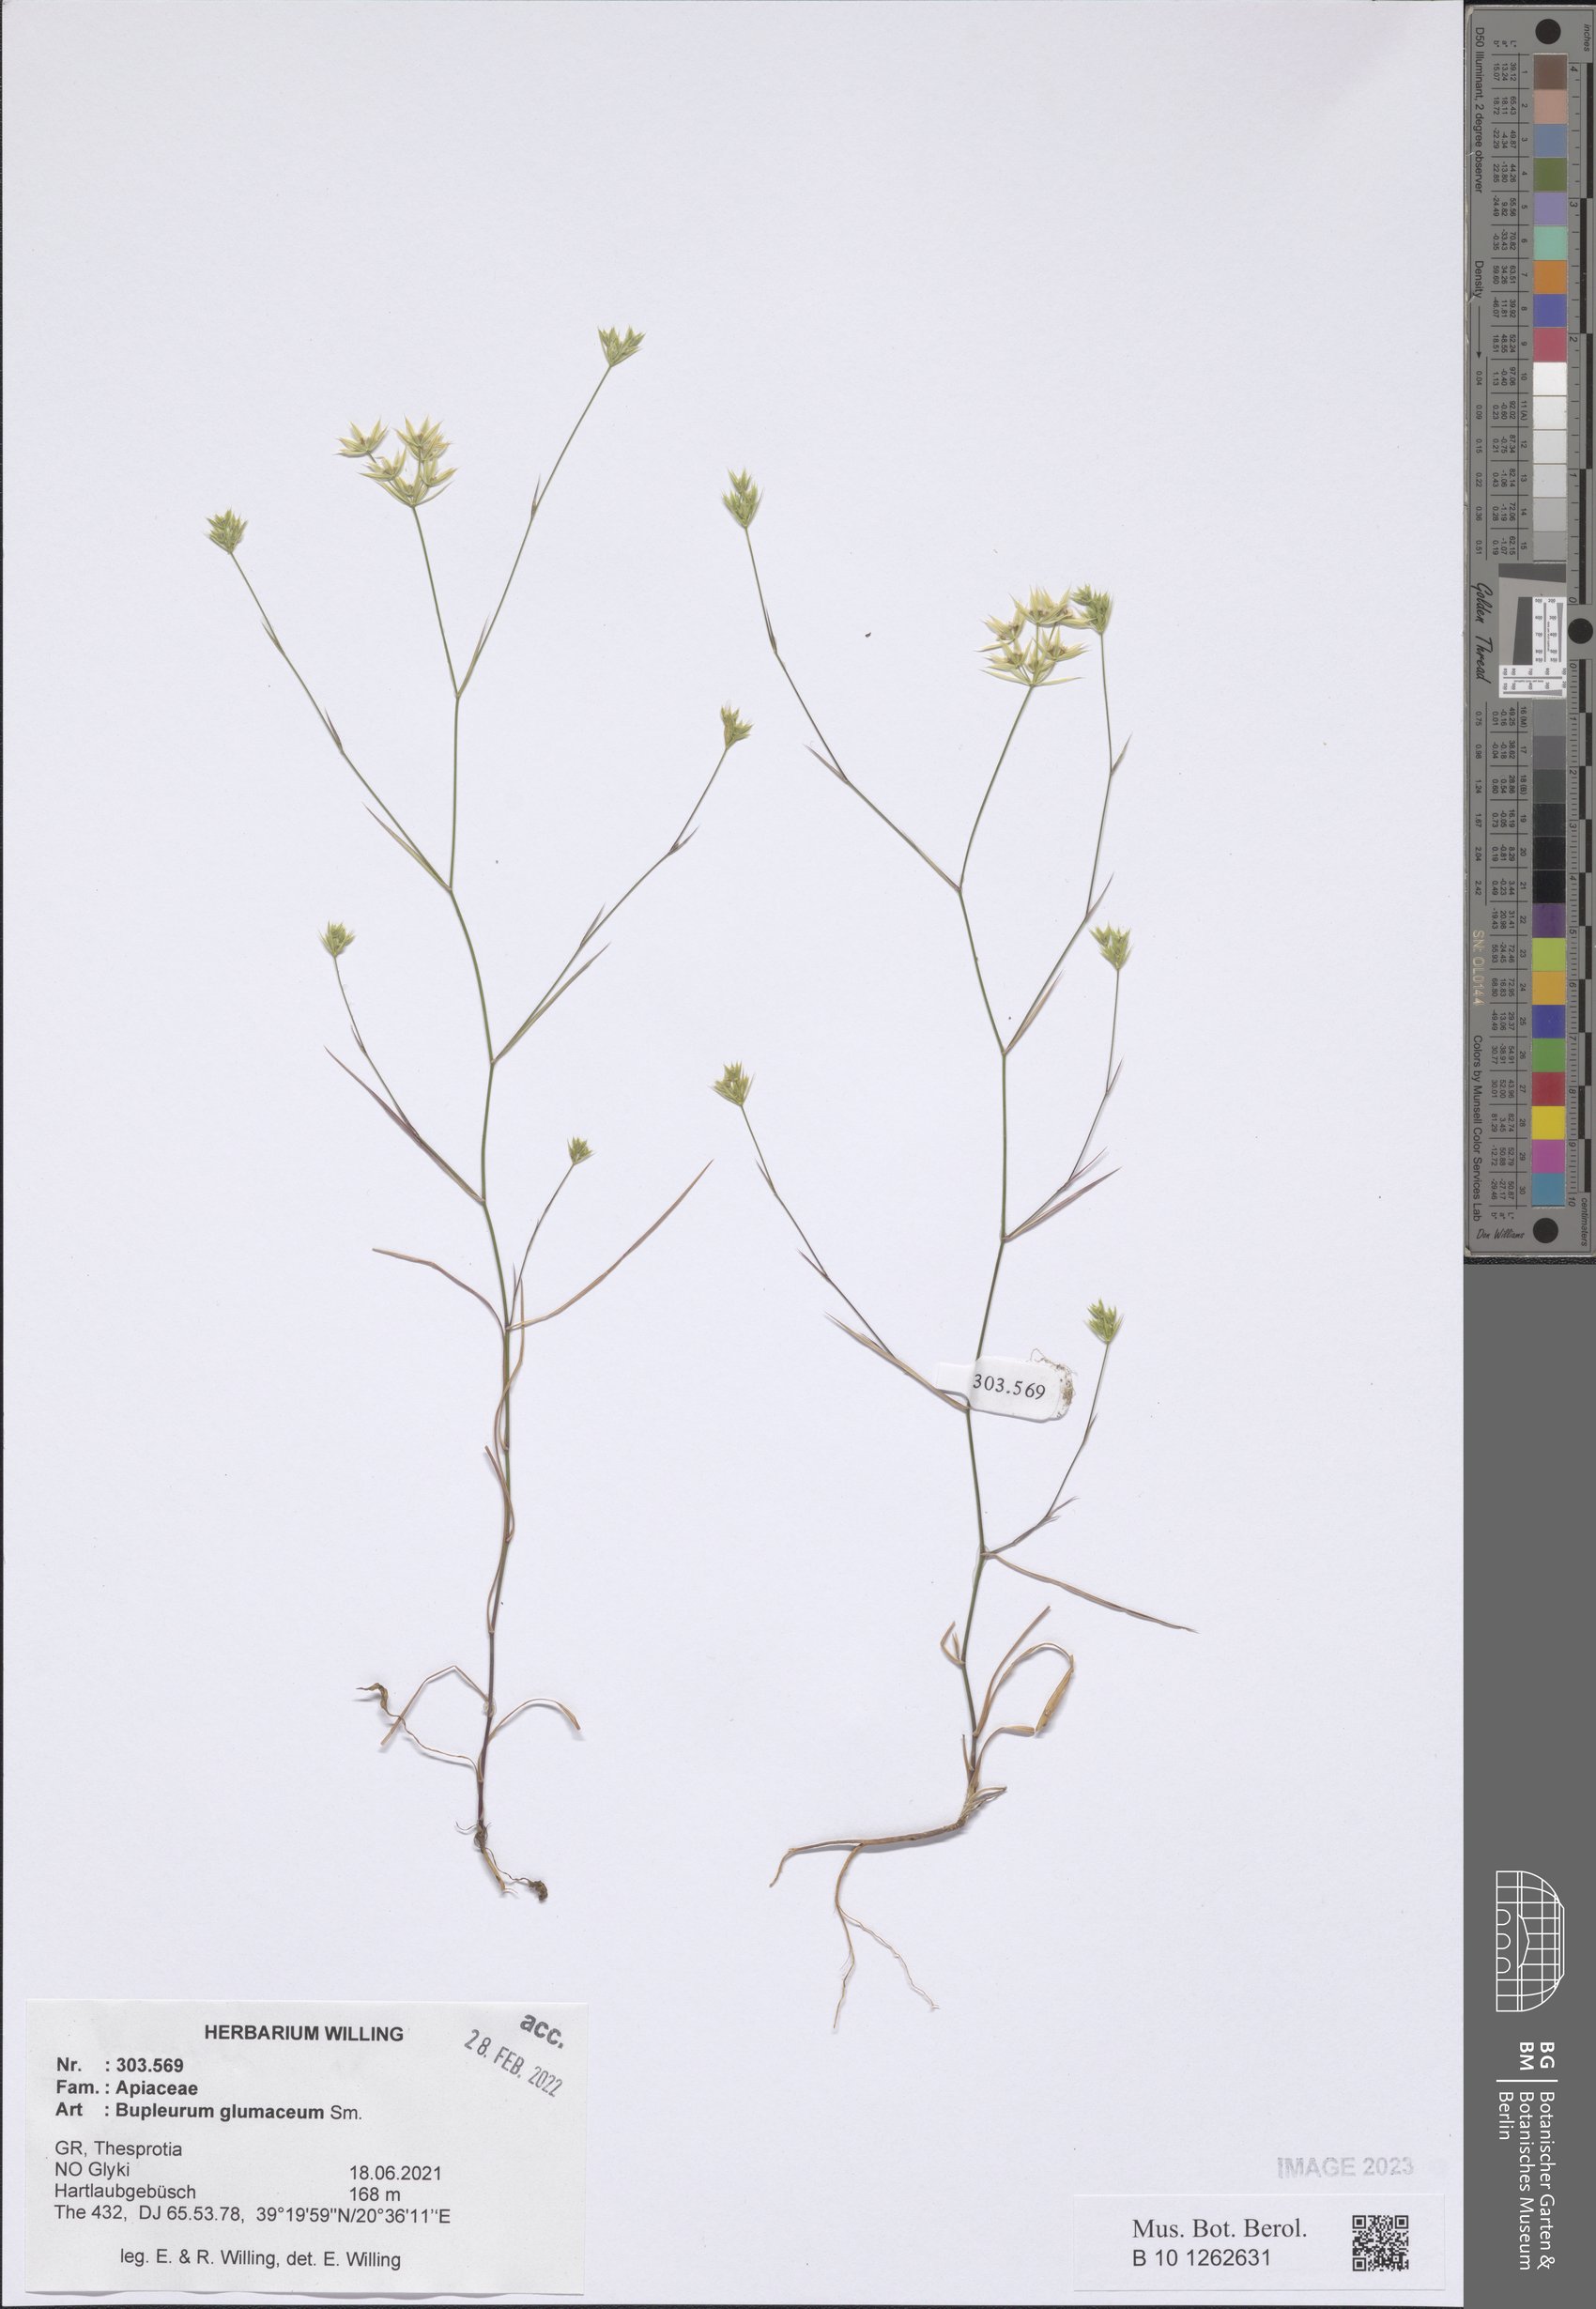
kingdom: Plantae
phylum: Tracheophyta
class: Magnoliopsida
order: Apiales
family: Apiaceae
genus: Bupleurum
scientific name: Bupleurum glumaceum
